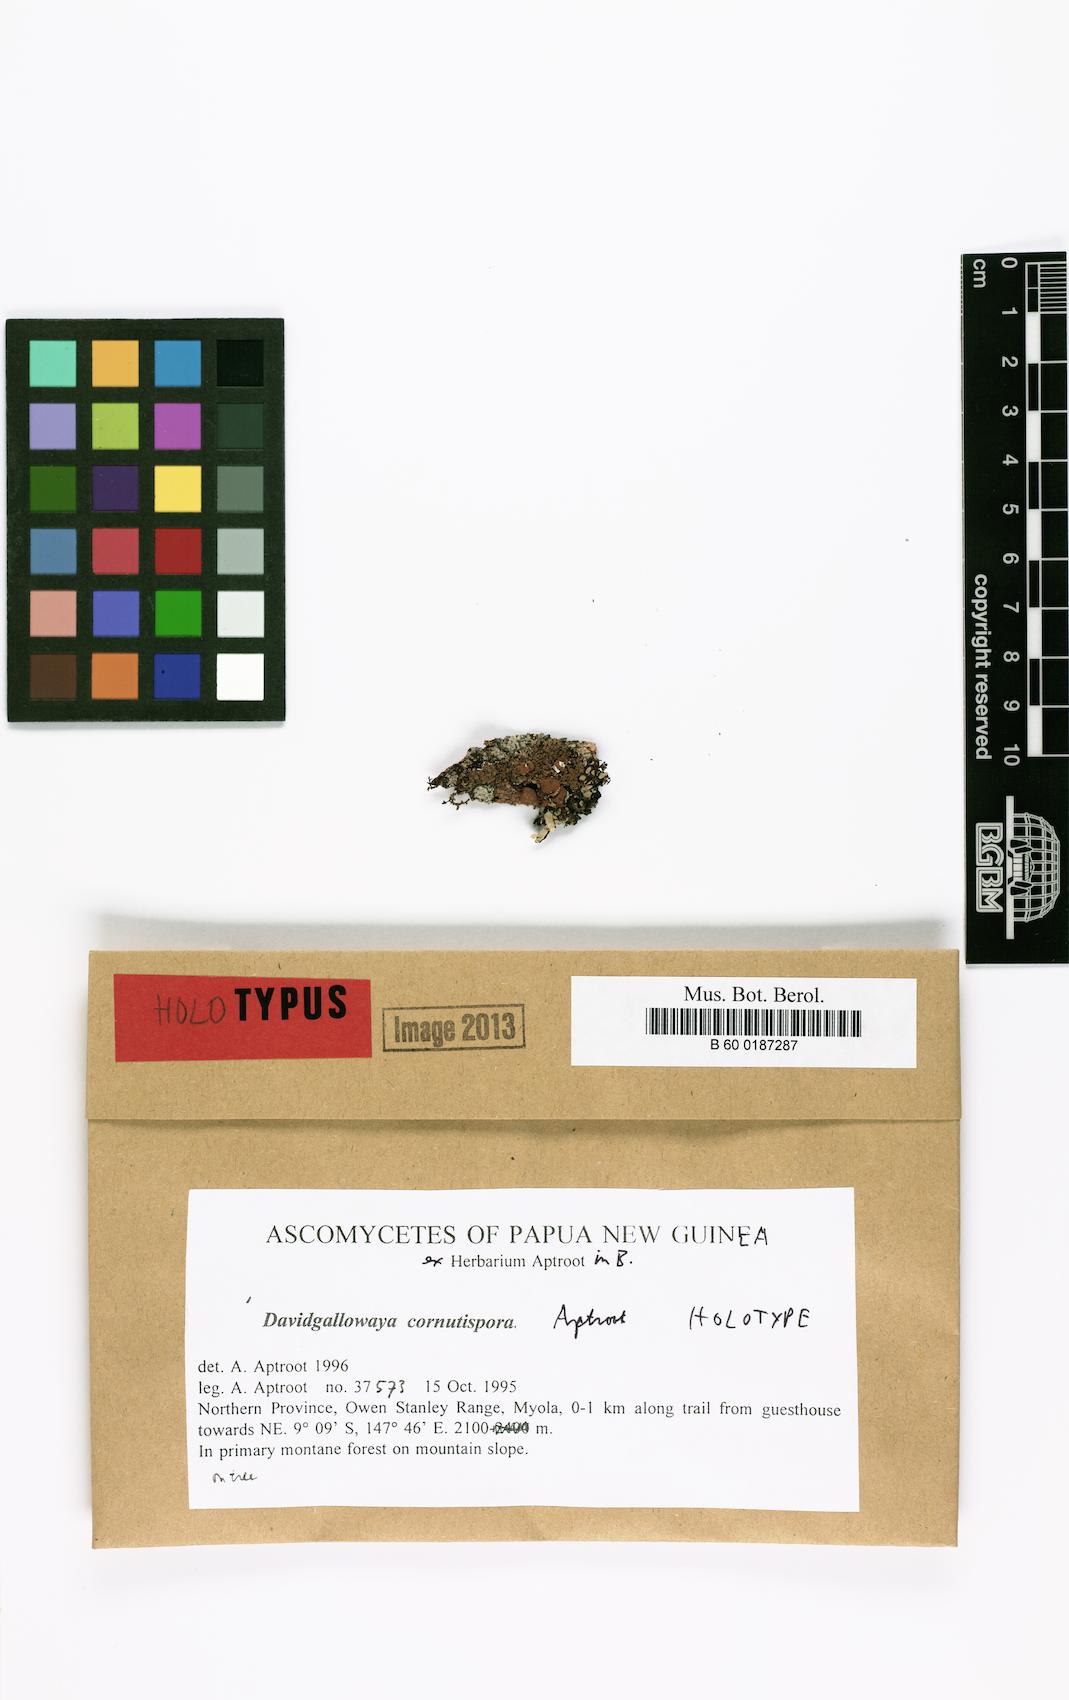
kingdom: Fungi
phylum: Ascomycota
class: Lecanoromycetes
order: Lecanorales
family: Parmeliaceae
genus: Davidgallowaya
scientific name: Davidgallowaya cornutispora
